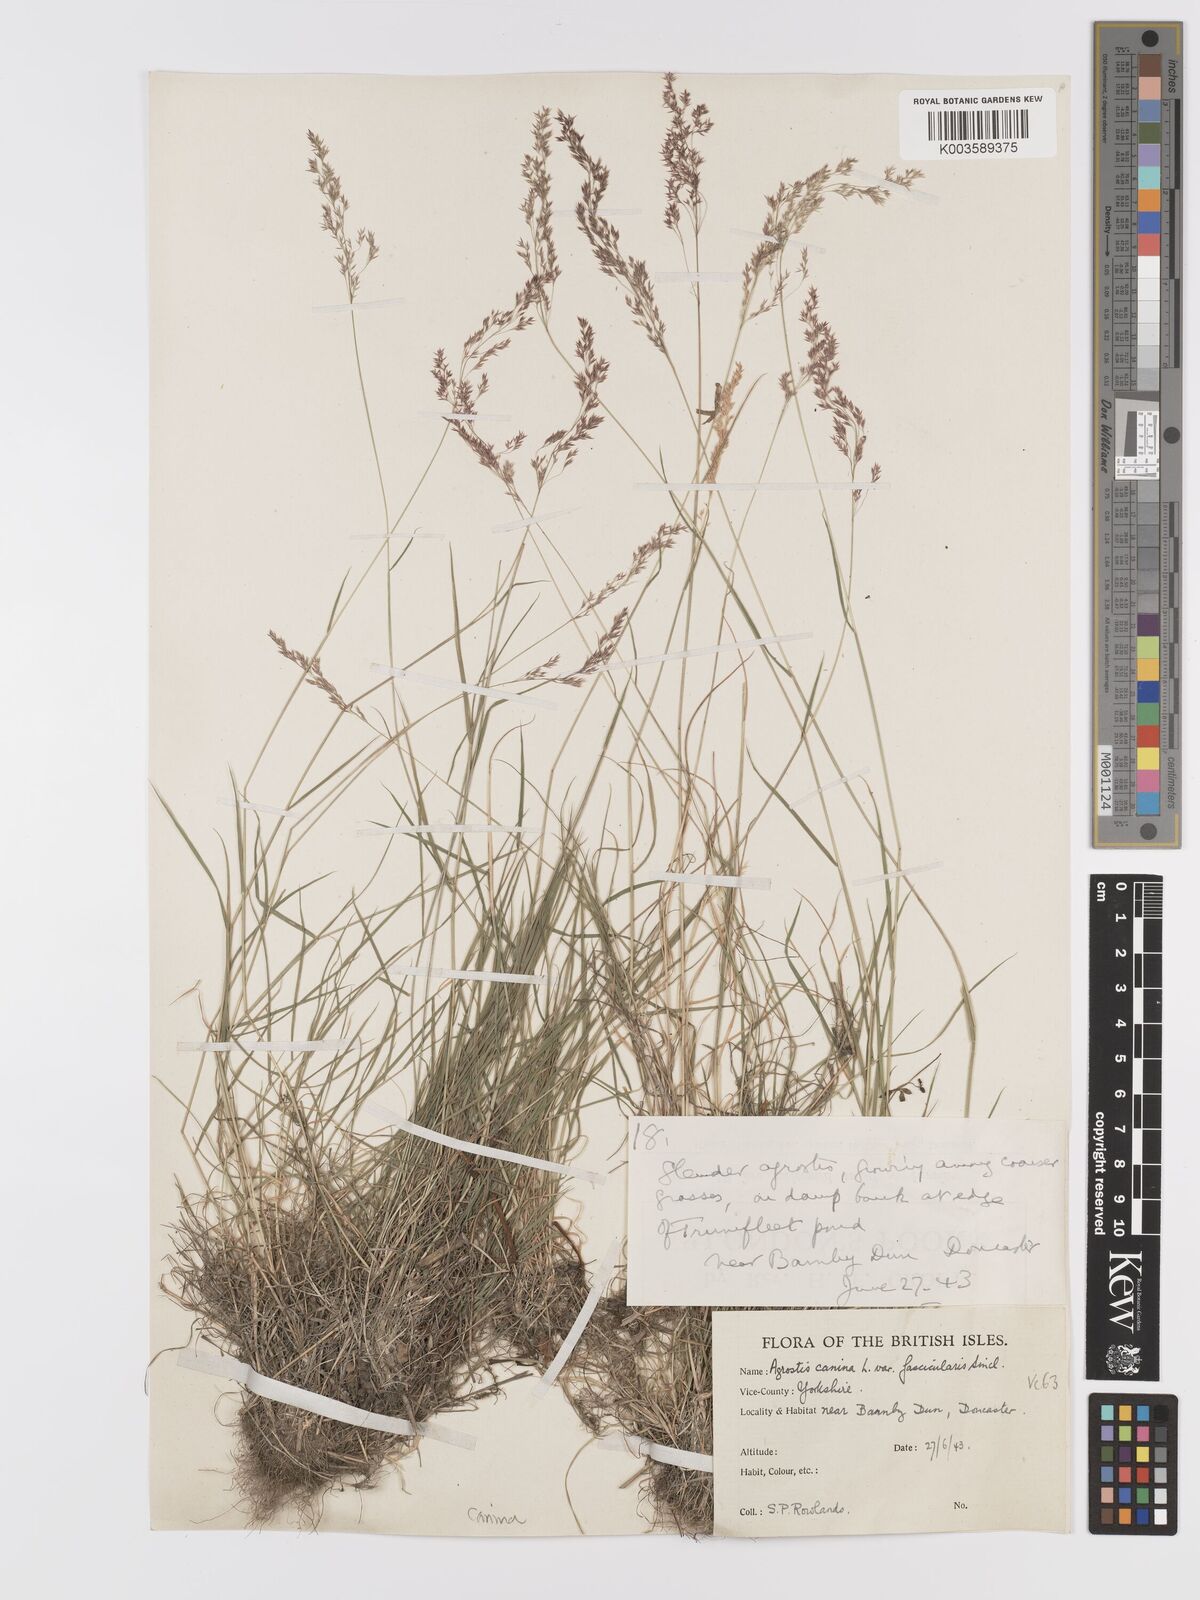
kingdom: Plantae
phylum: Tracheophyta
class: Liliopsida
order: Poales
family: Poaceae
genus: Agrostis
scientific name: Agrostis canina
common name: Velvet bent
